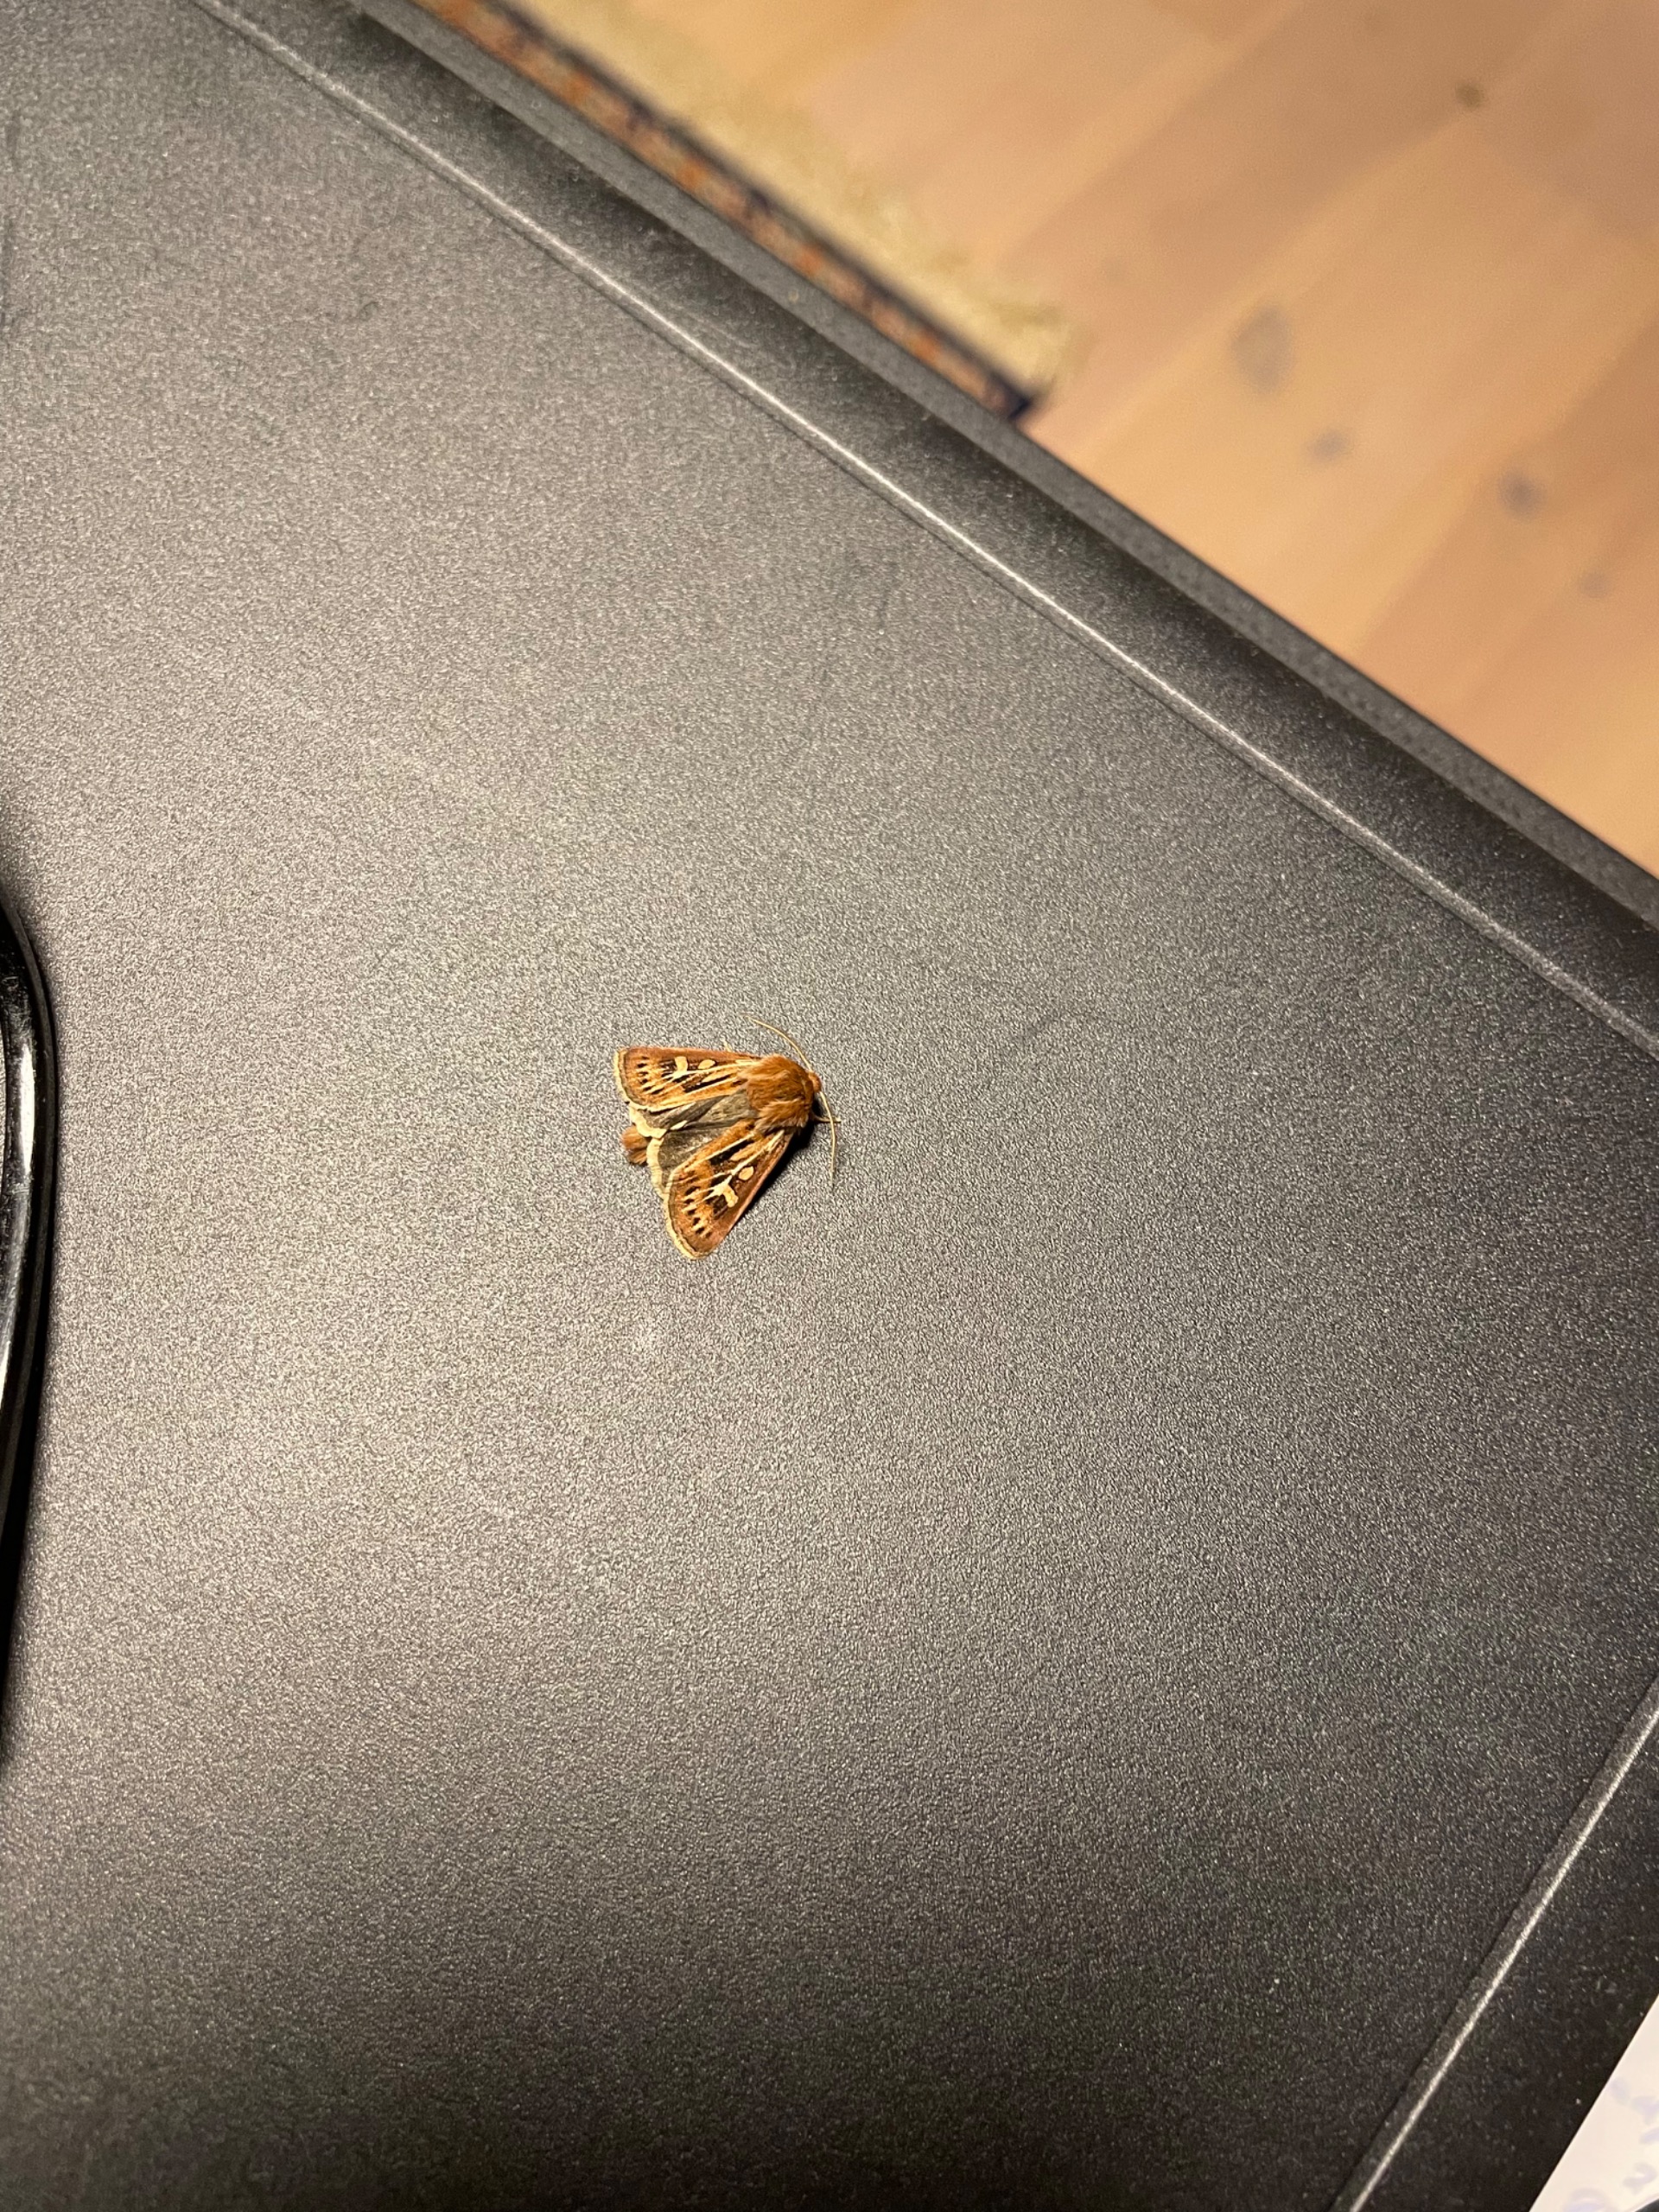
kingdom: Animalia
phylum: Arthropoda
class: Insecta
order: Lepidoptera
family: Noctuidae
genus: Cerapteryx
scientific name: Cerapteryx graminis
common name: Mosebunkeugle
